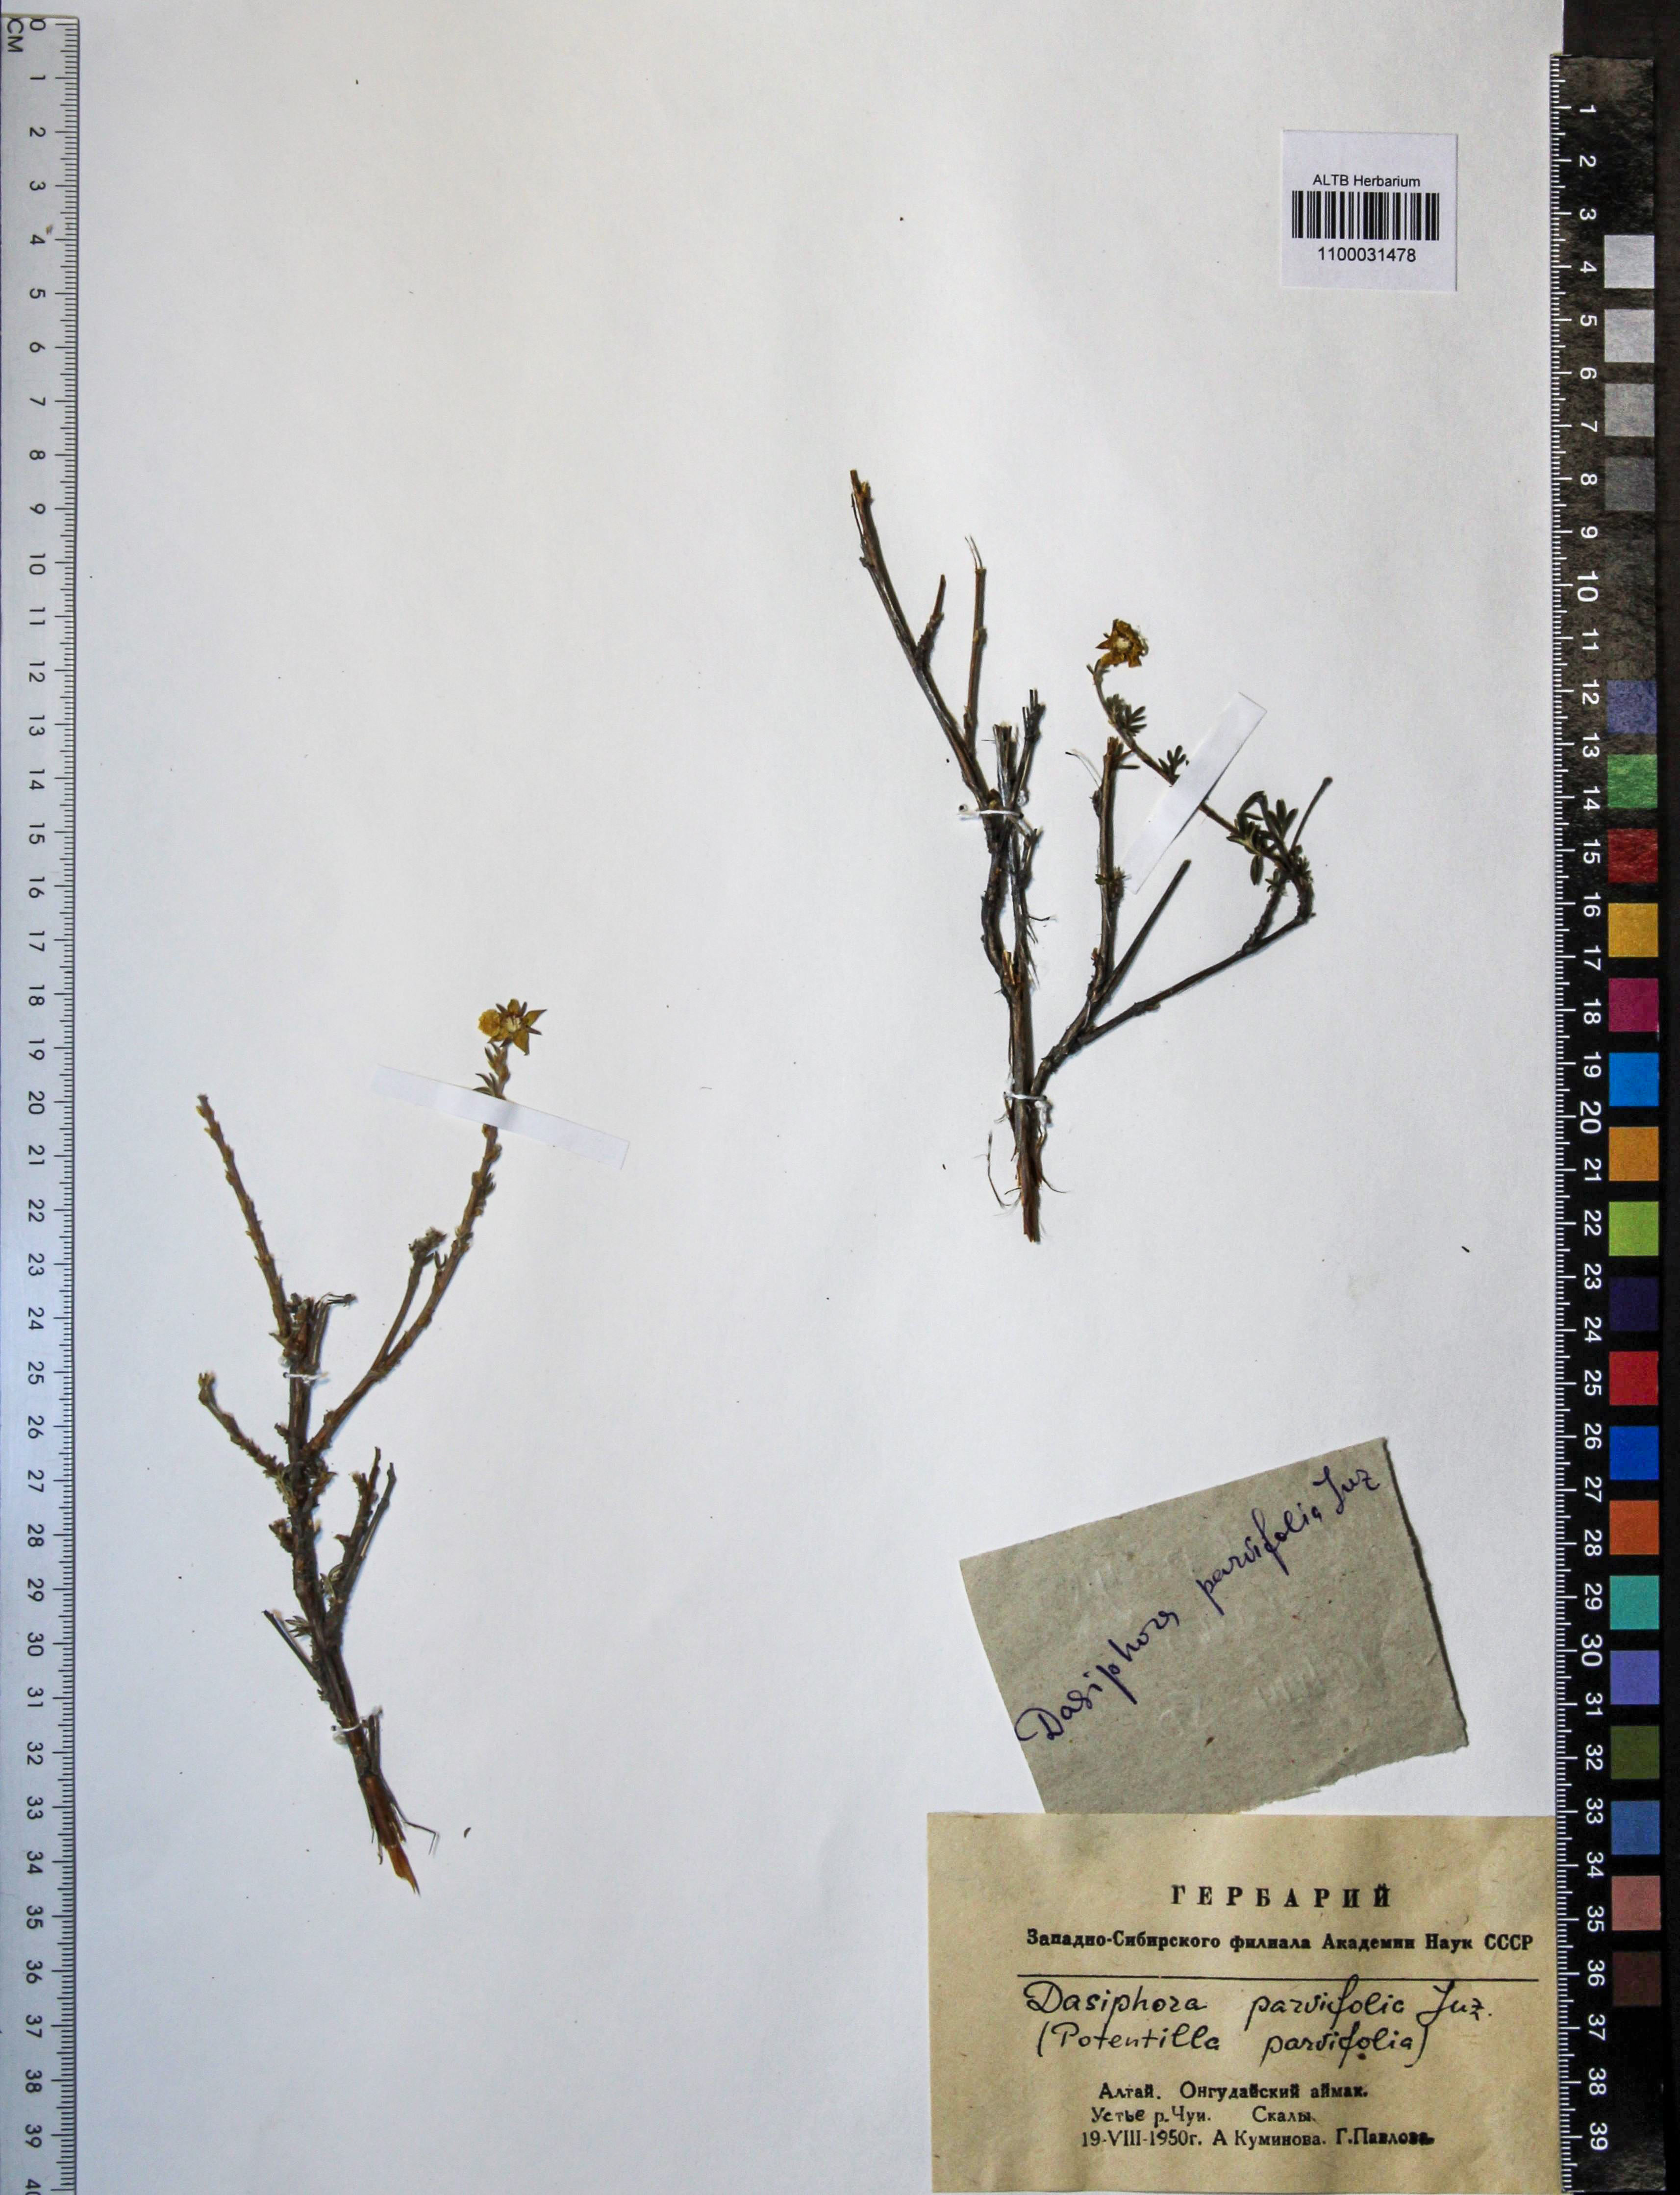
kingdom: Plantae
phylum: Tracheophyta
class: Magnoliopsida
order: Rosales
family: Rosaceae
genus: Dasiphora
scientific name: Dasiphora parvifolia
